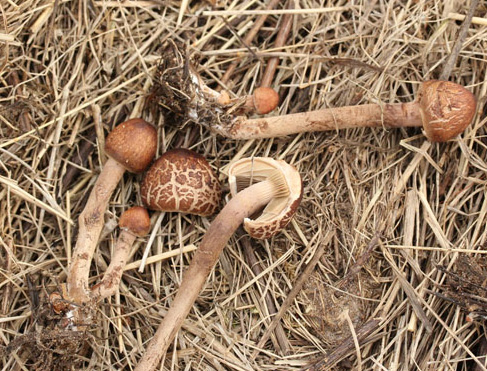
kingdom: Fungi
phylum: Basidiomycota
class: Agaricomycetes
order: Agaricales
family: Bolbitiaceae
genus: Panaeolus
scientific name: Panaeolus papilionaceus
